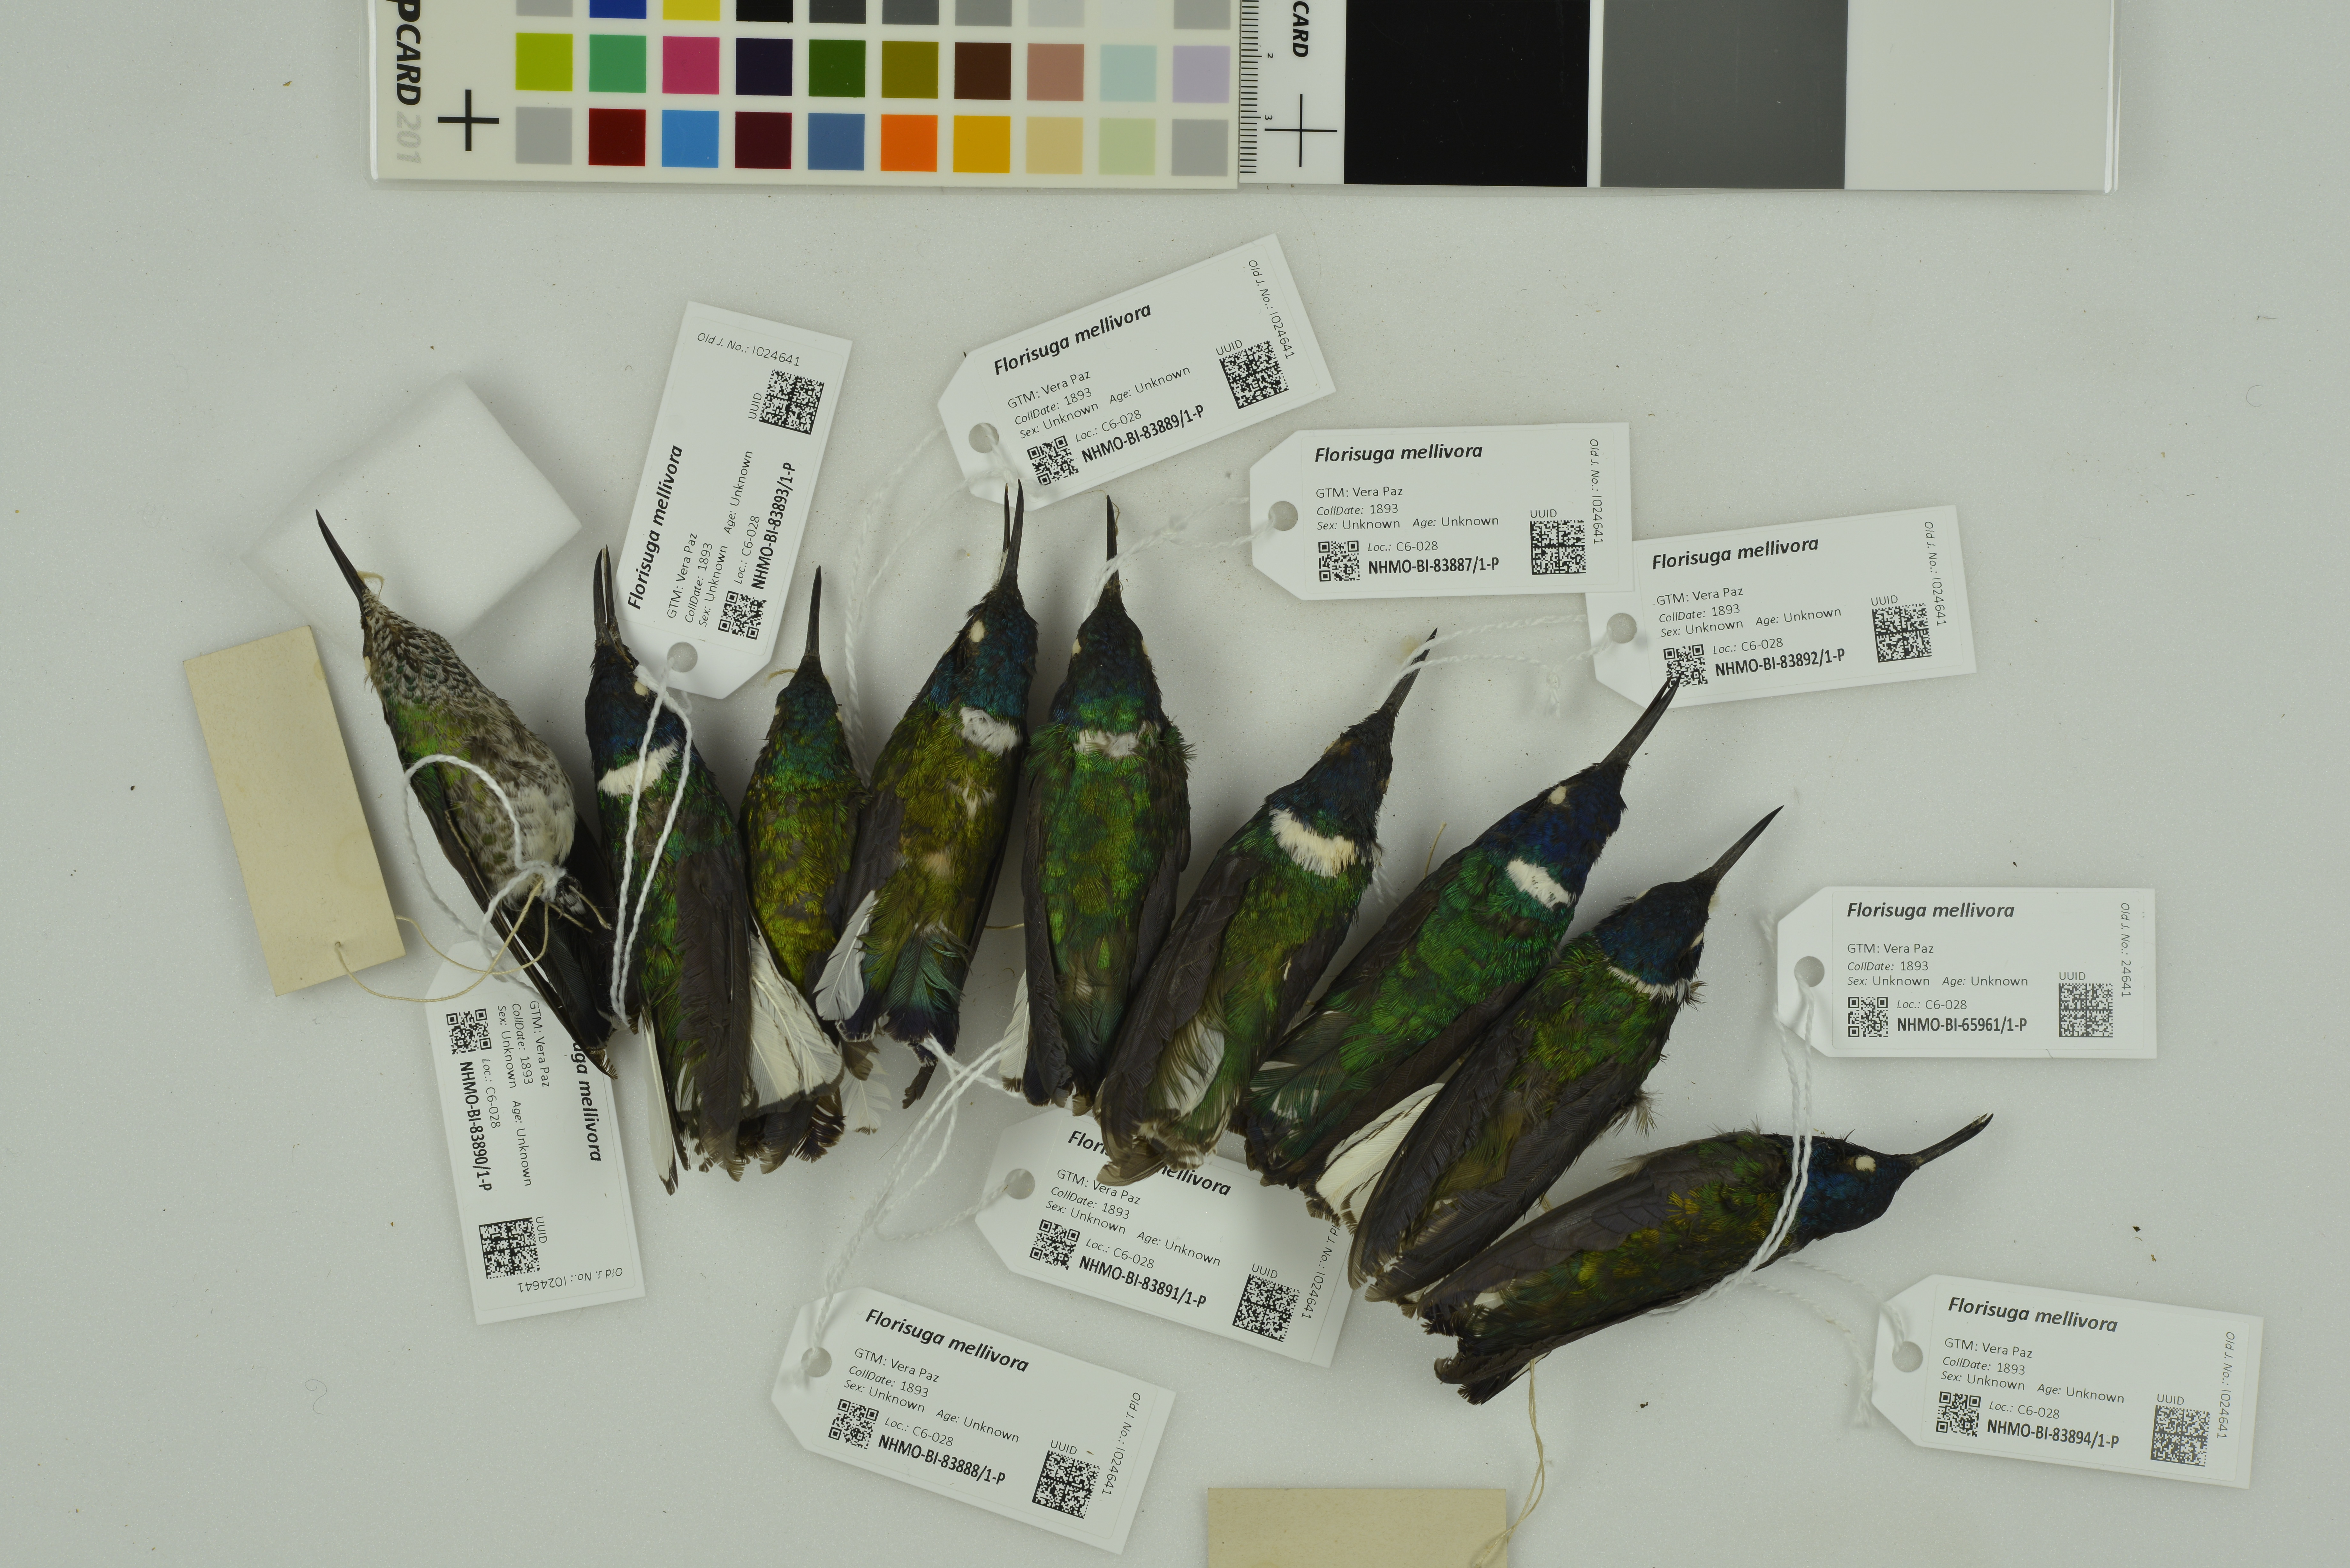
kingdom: Animalia
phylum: Chordata
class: Aves
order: Apodiformes
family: Trochilidae
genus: Florisuga
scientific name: Florisuga mellivora
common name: White-necked jacobin
